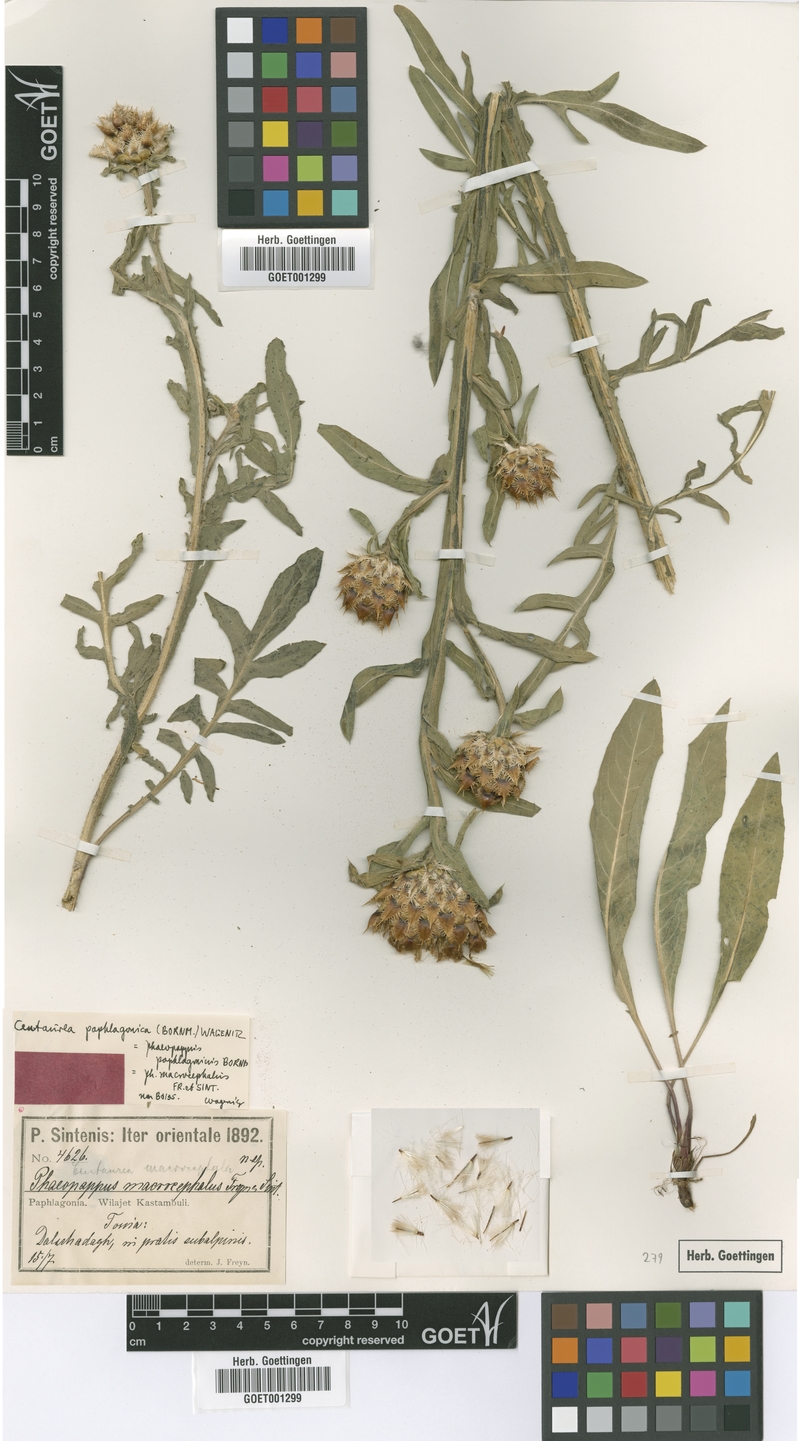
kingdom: Plantae
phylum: Tracheophyta
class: Magnoliopsida
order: Asterales
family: Asteraceae
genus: Centaurea
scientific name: Centaurea paphlagonica
